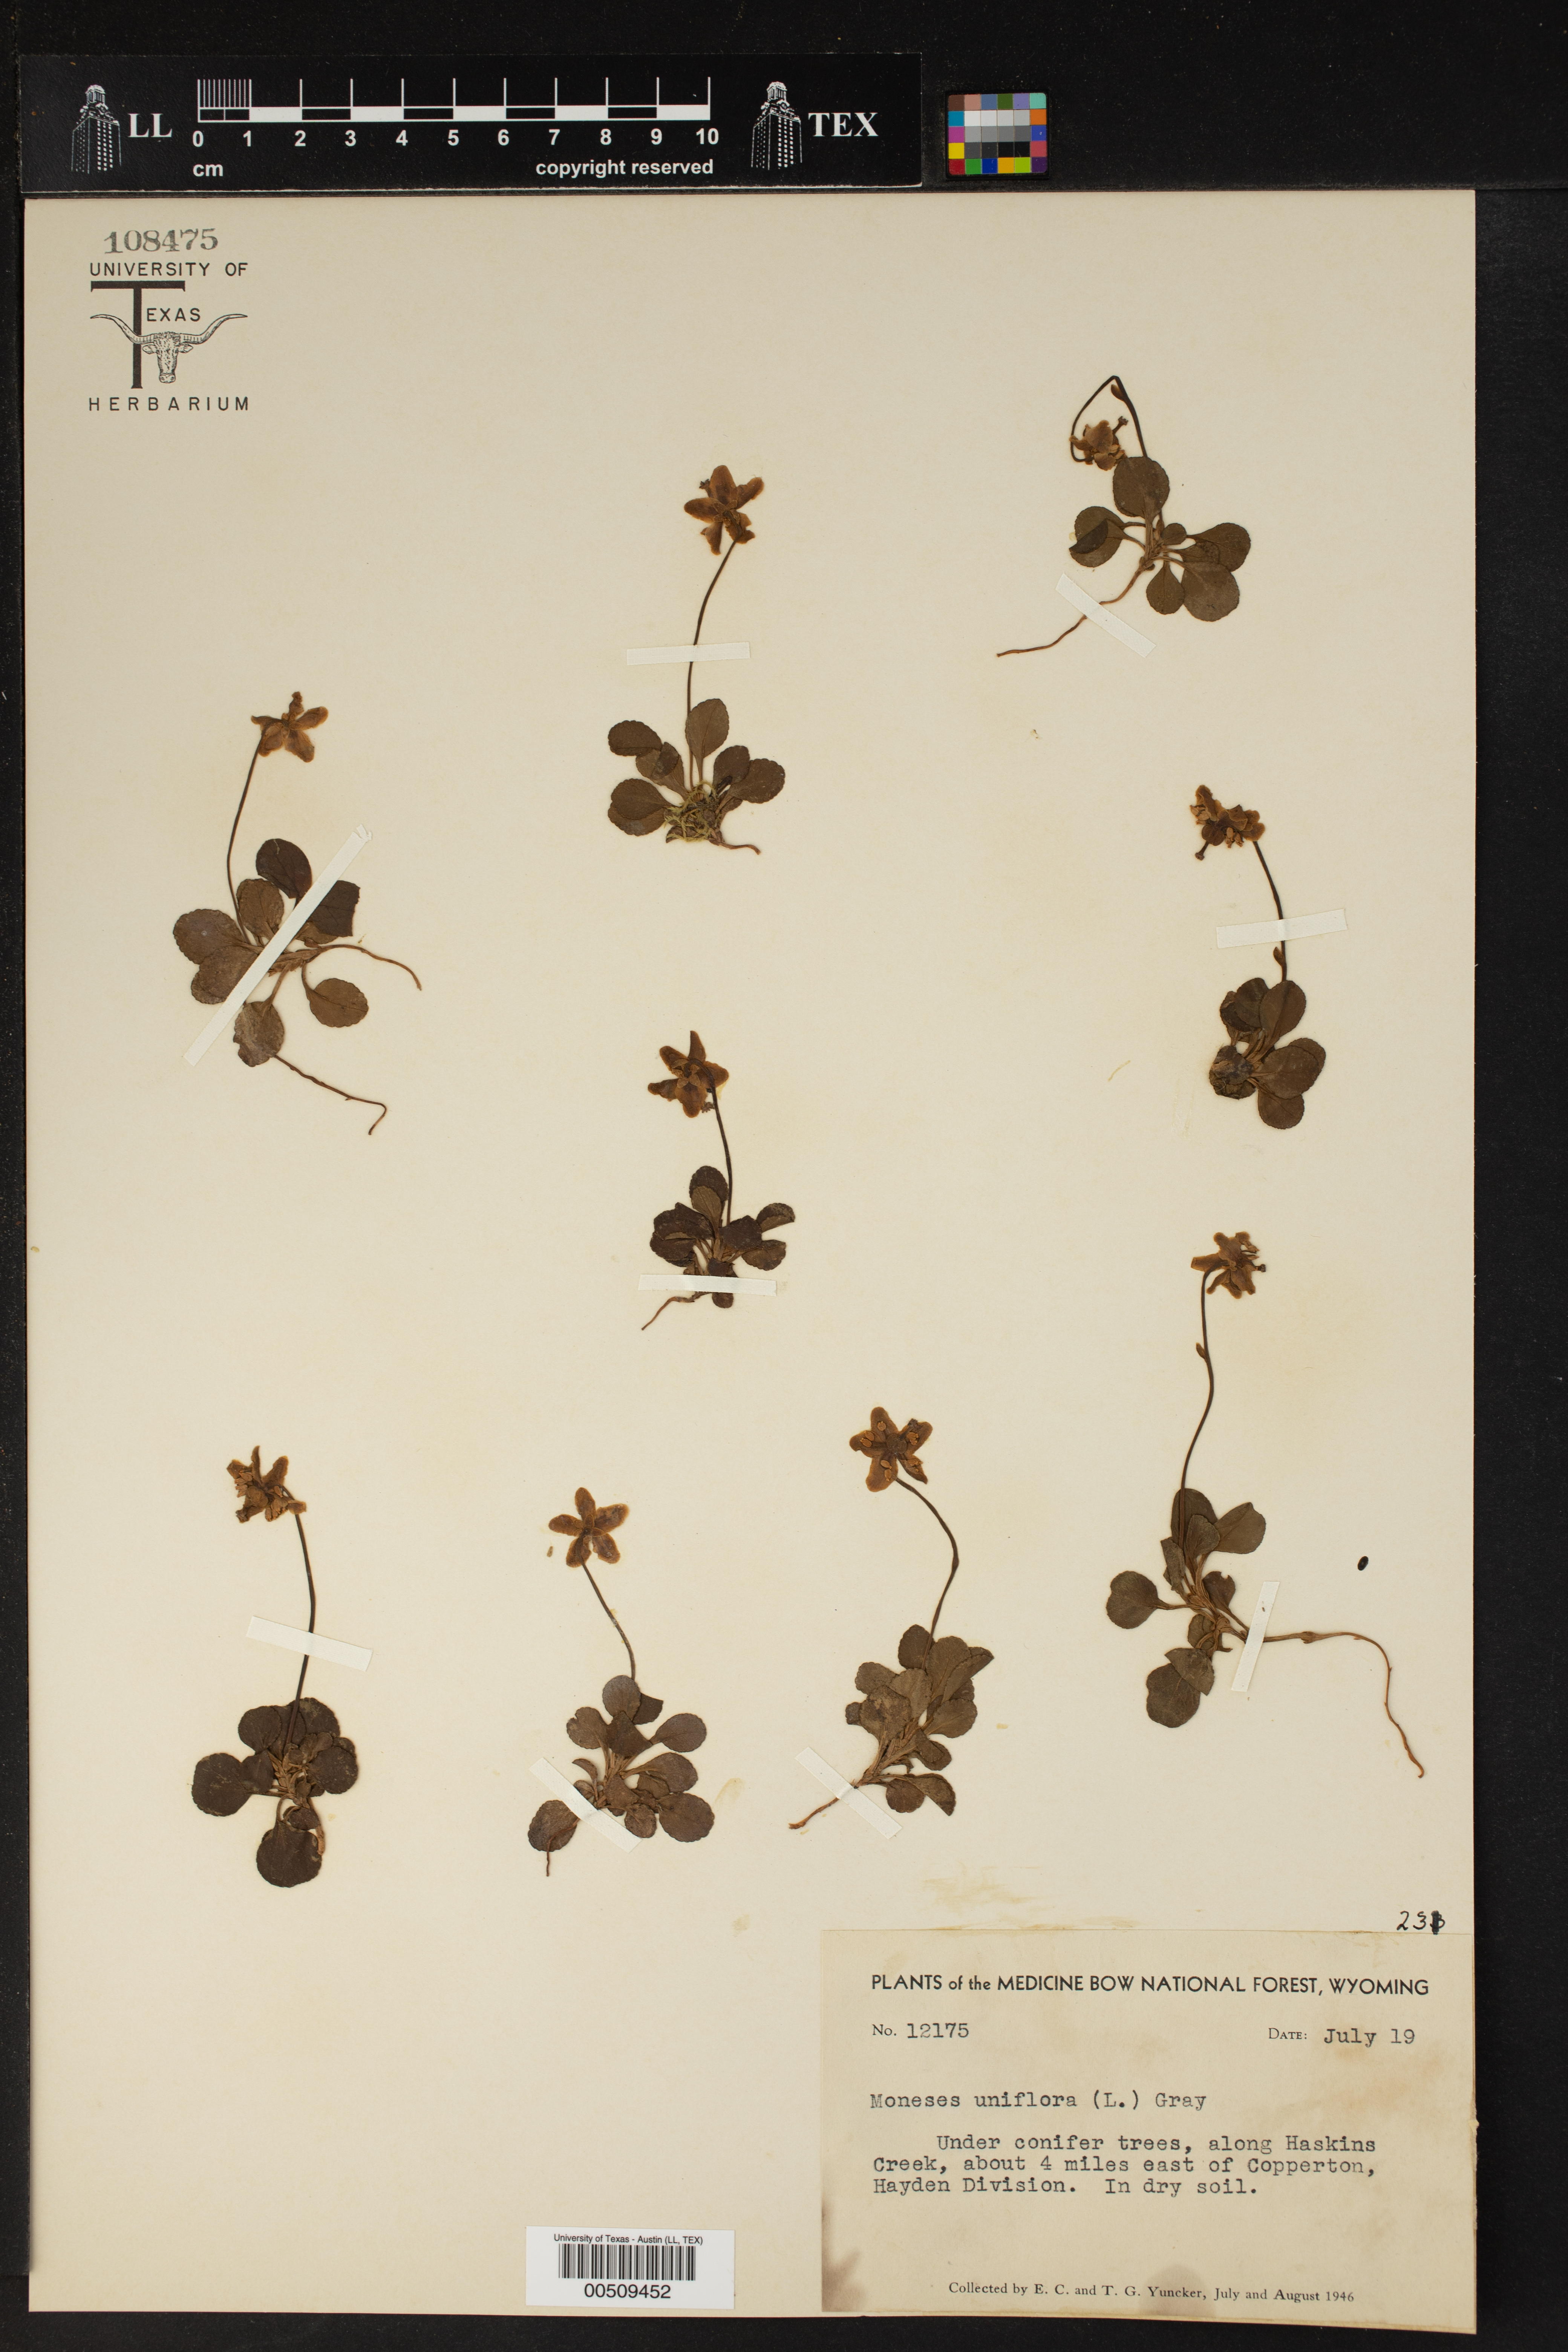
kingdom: Plantae
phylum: Tracheophyta
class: Magnoliopsida
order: Ericales
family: Ericaceae
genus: Moneses
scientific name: Moneses uniflora
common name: One-flowered wintergreen
